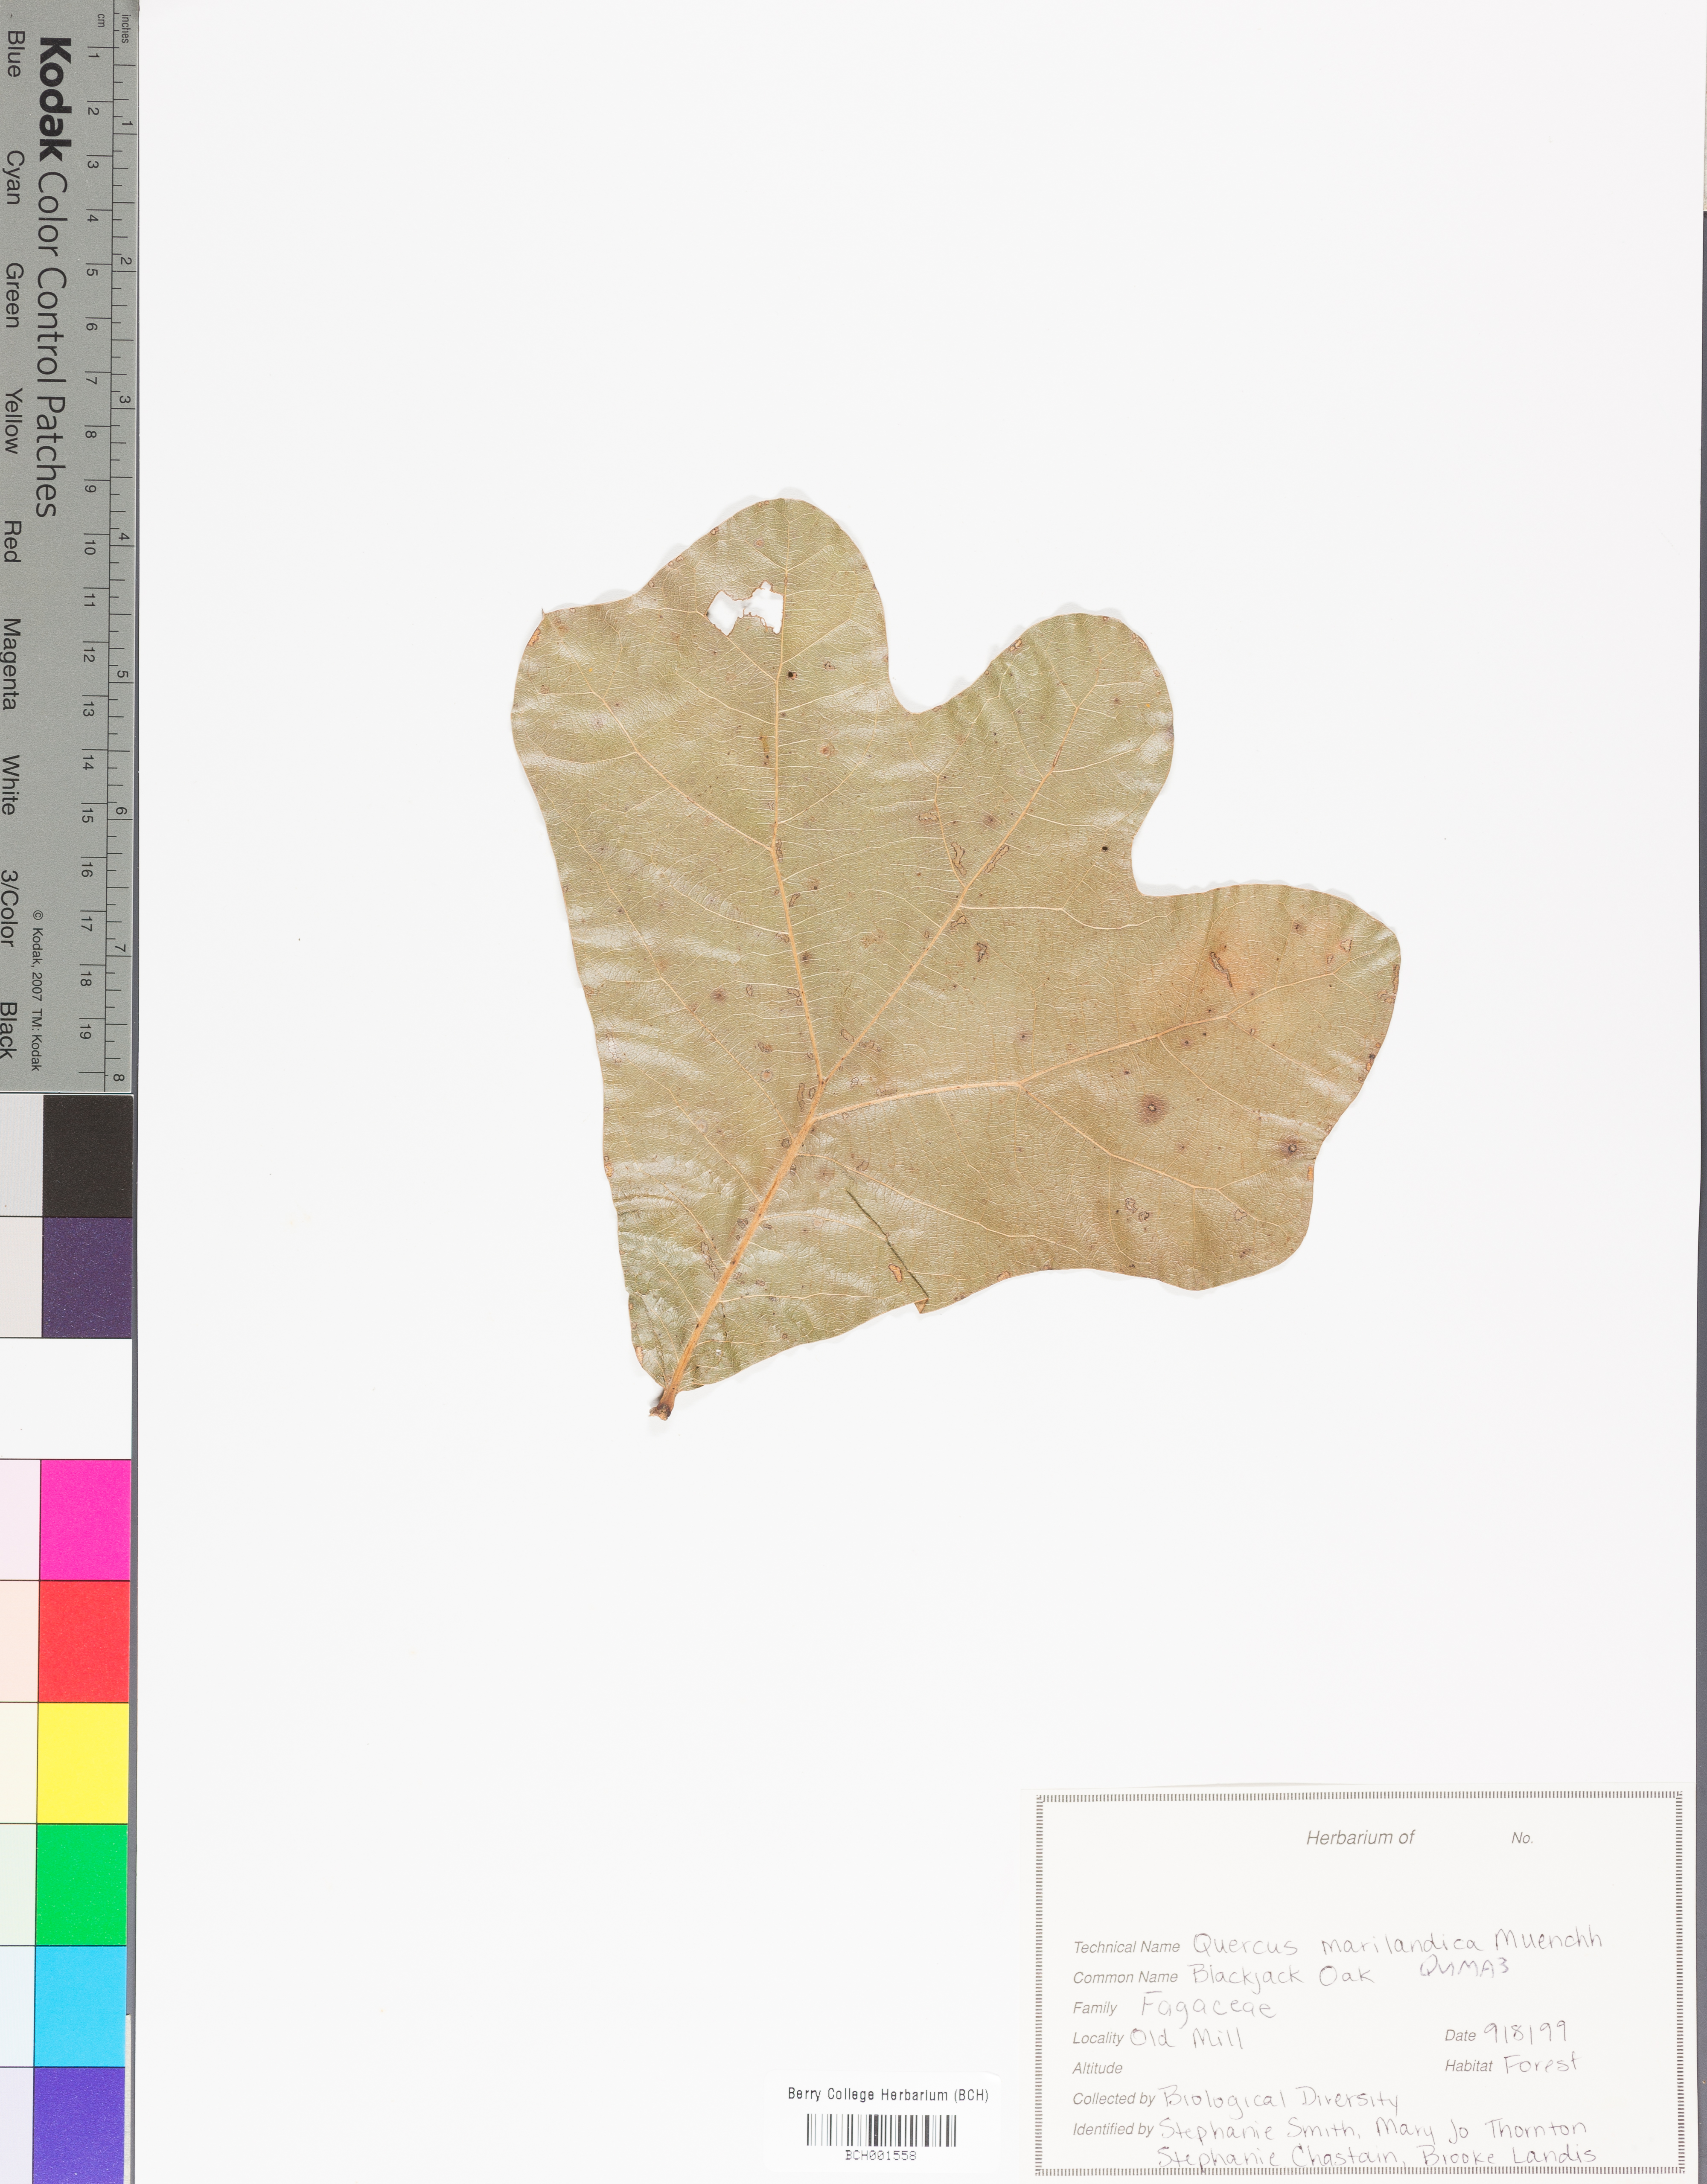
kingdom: Plantae
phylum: Tracheophyta
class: Magnoliopsida
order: Fagales
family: Fagaceae
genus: Quercus
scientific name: Quercus marilandica
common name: Blackjack oak
